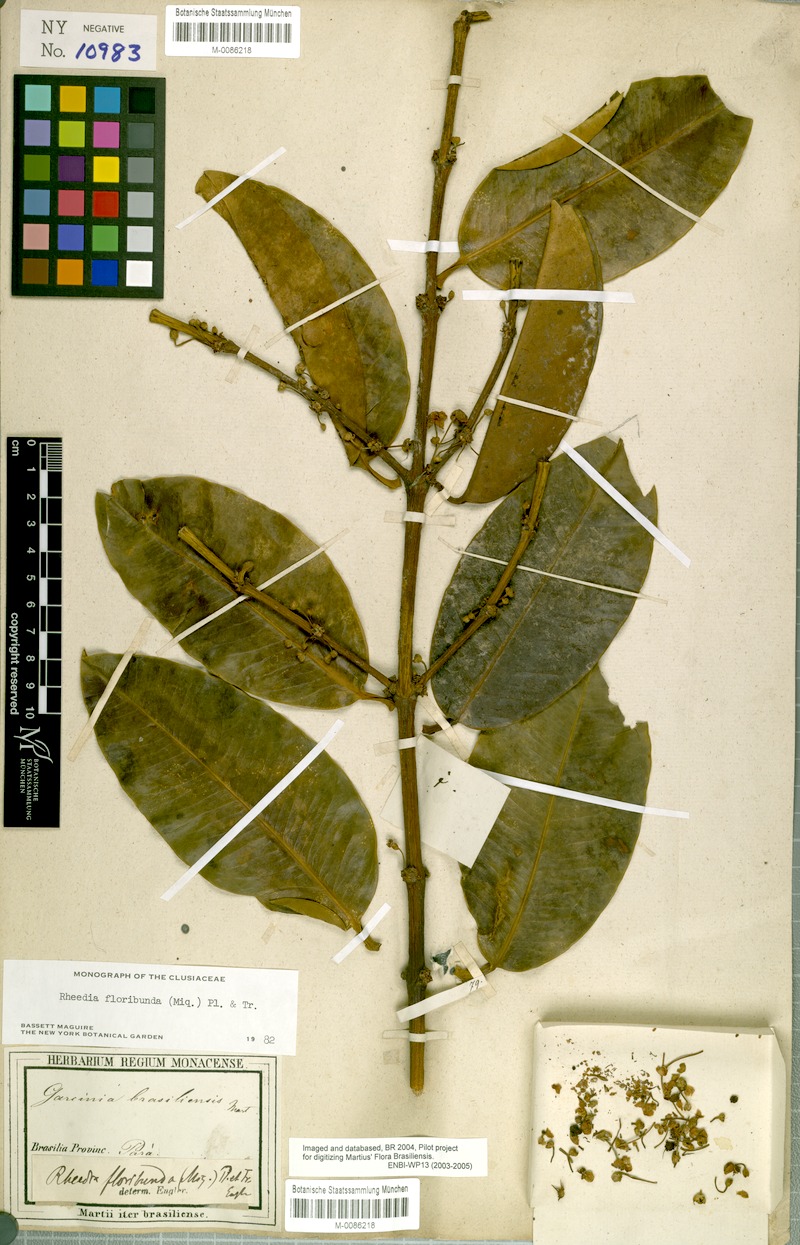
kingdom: Plantae
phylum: Tracheophyta
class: Magnoliopsida
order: Malpighiales
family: Clusiaceae
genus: Garcinia
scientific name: Garcinia madruno
